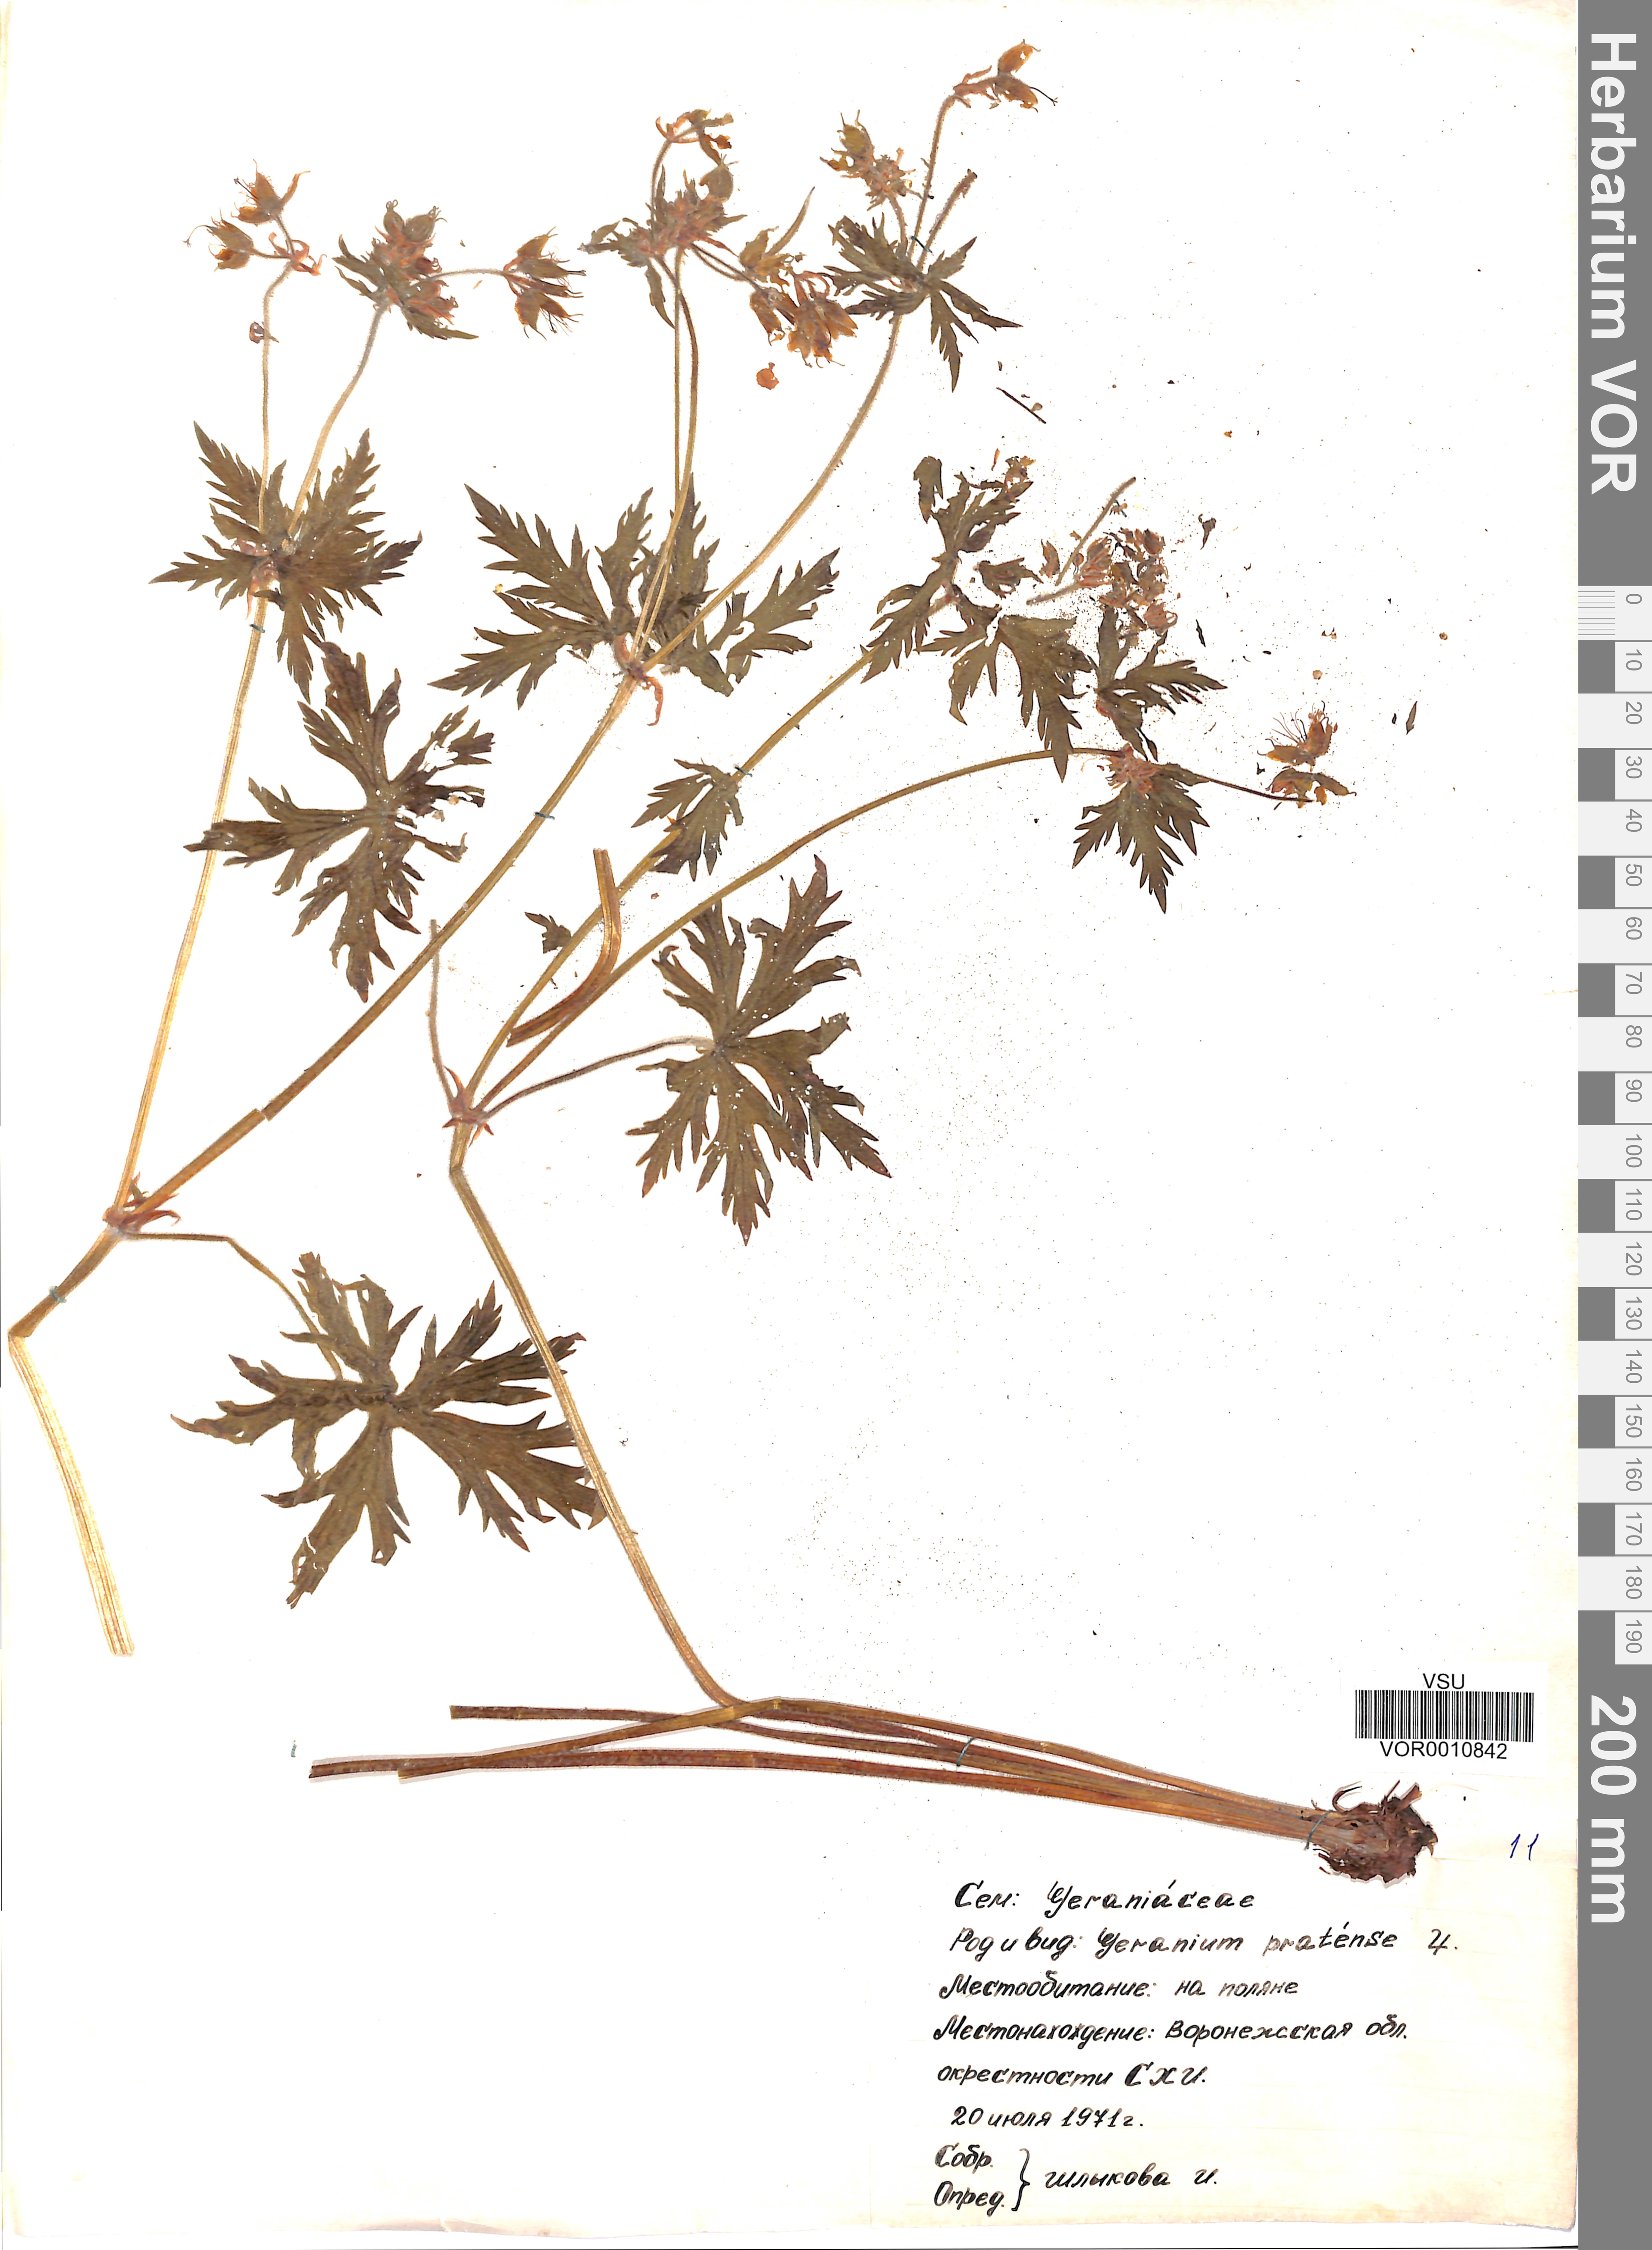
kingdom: Plantae
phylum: Tracheophyta
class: Magnoliopsida
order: Geraniales
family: Geraniaceae
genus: Geranium
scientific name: Geranium pratense
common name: Meadow crane's-bill
